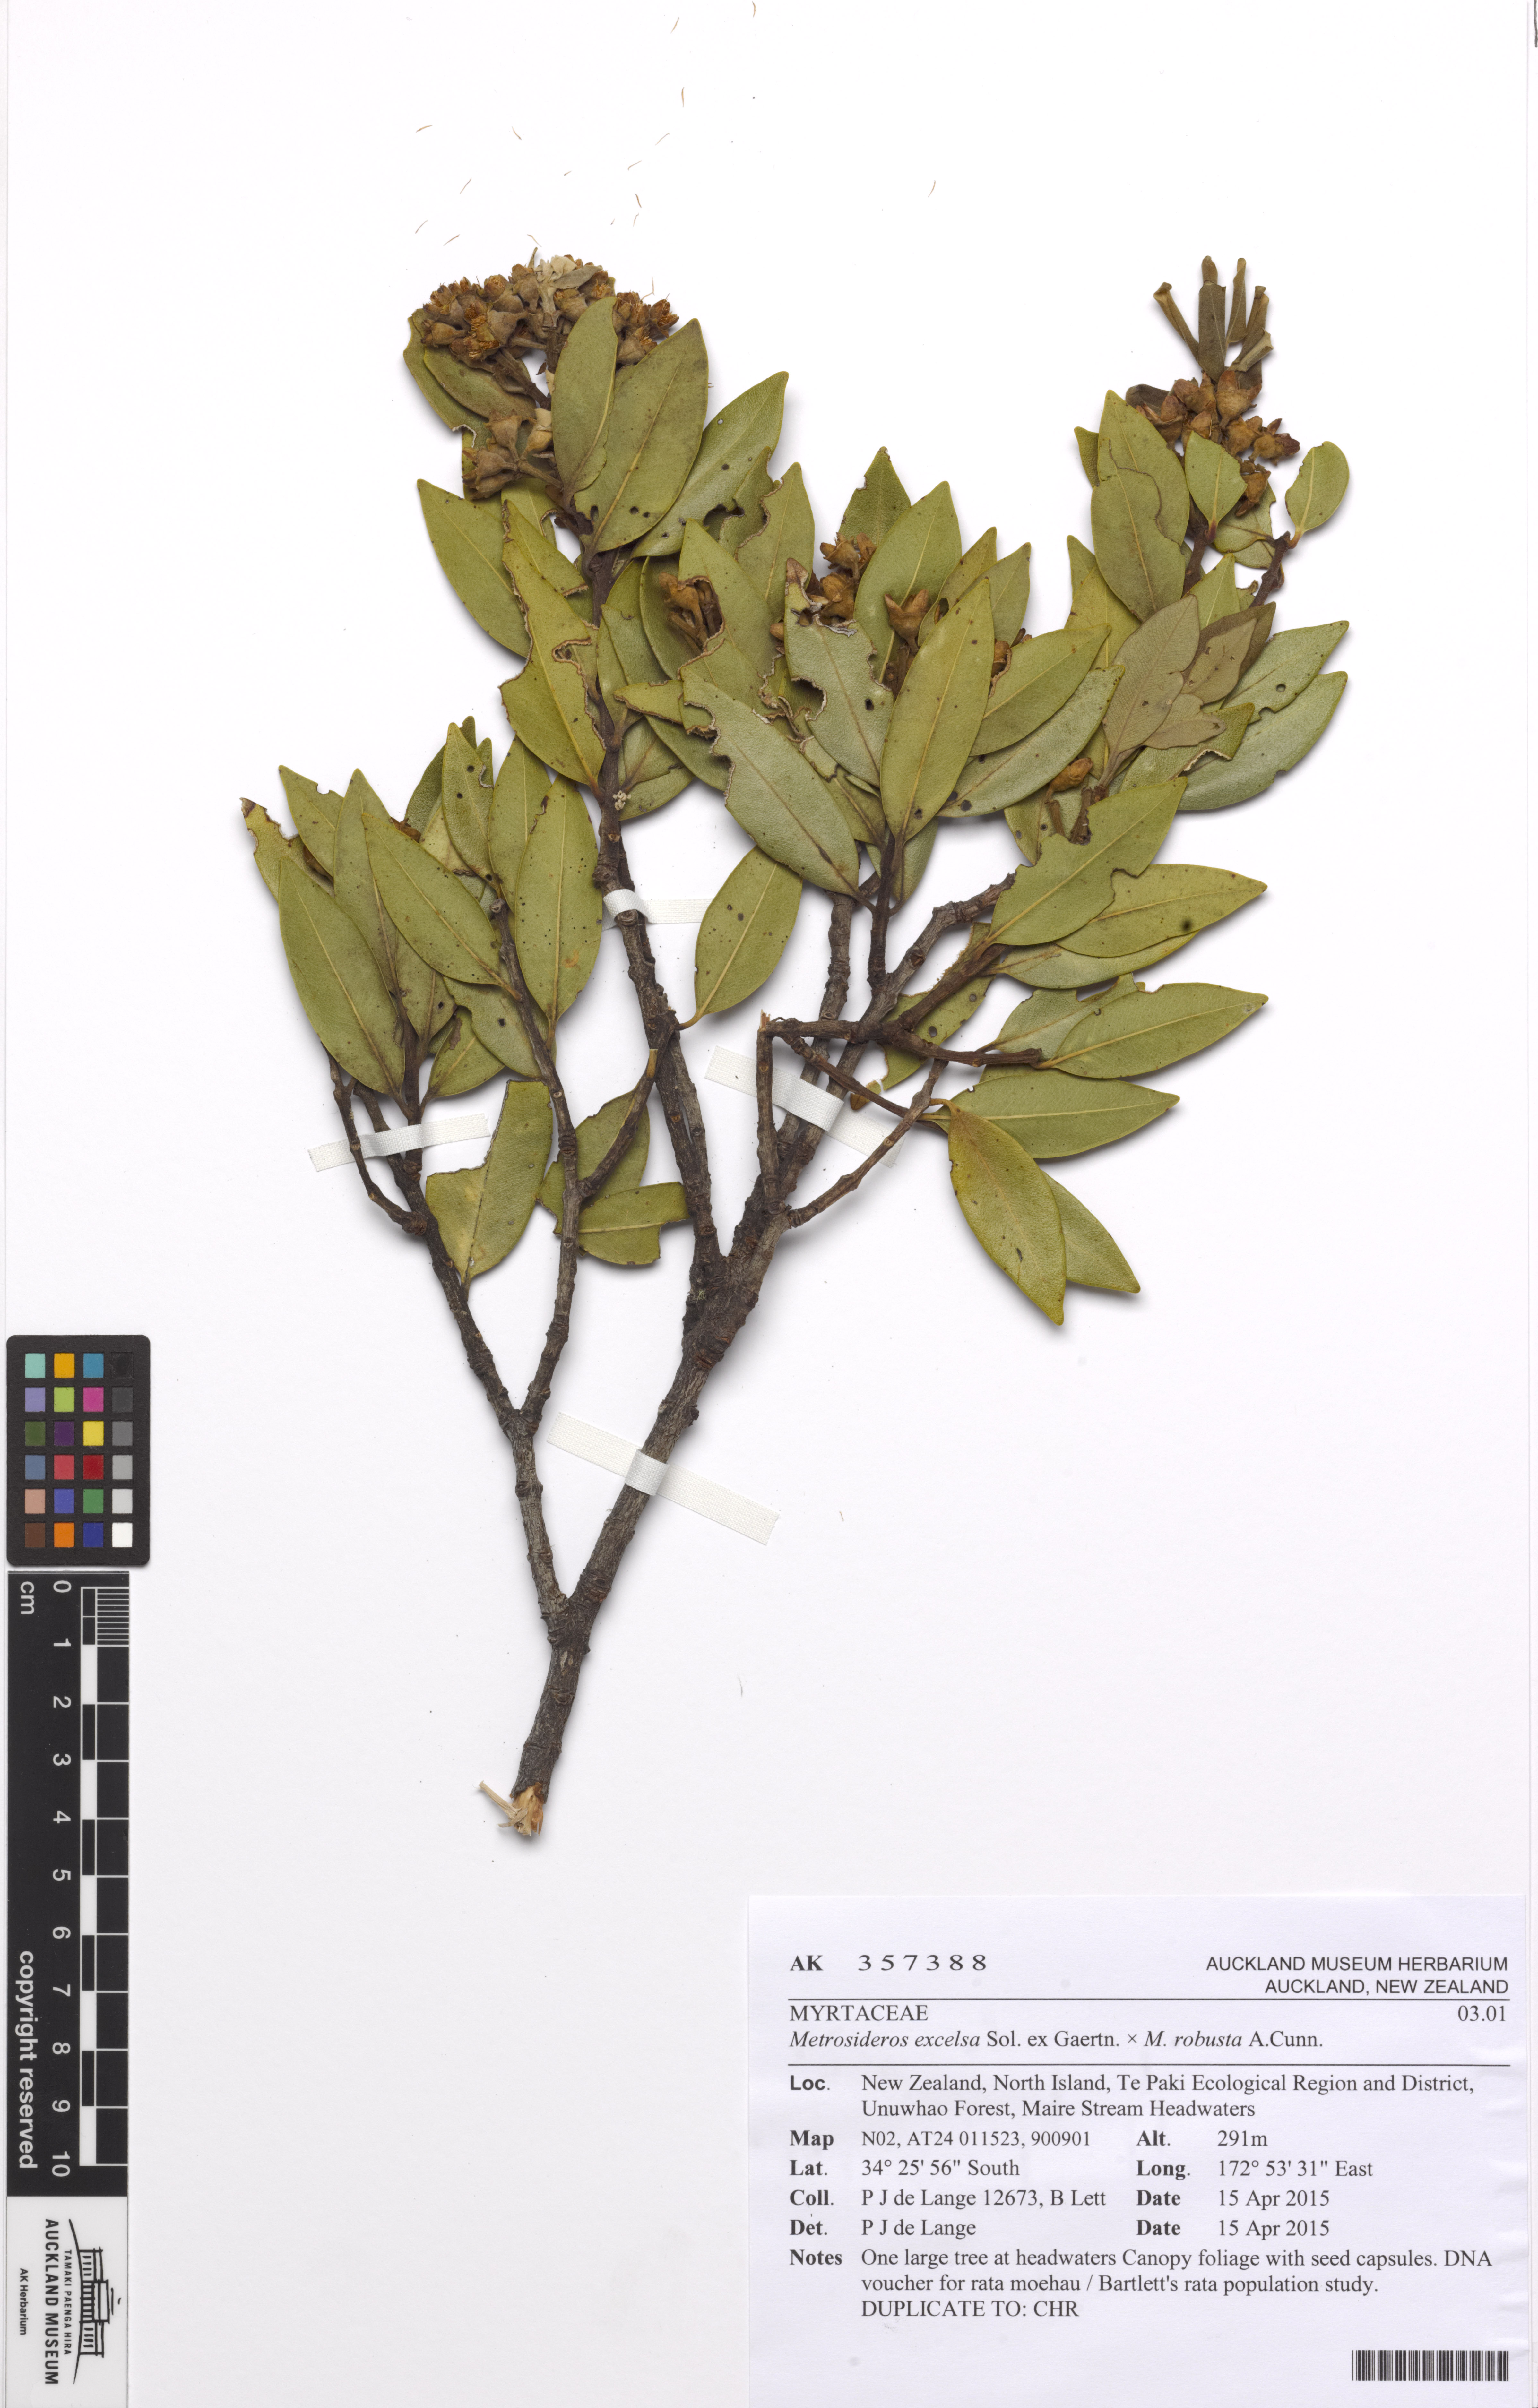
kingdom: Plantae
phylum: Tracheophyta
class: Magnoliopsida
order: Myrtales
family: Myrtaceae
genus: Metrosideros
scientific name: Metrosideros
